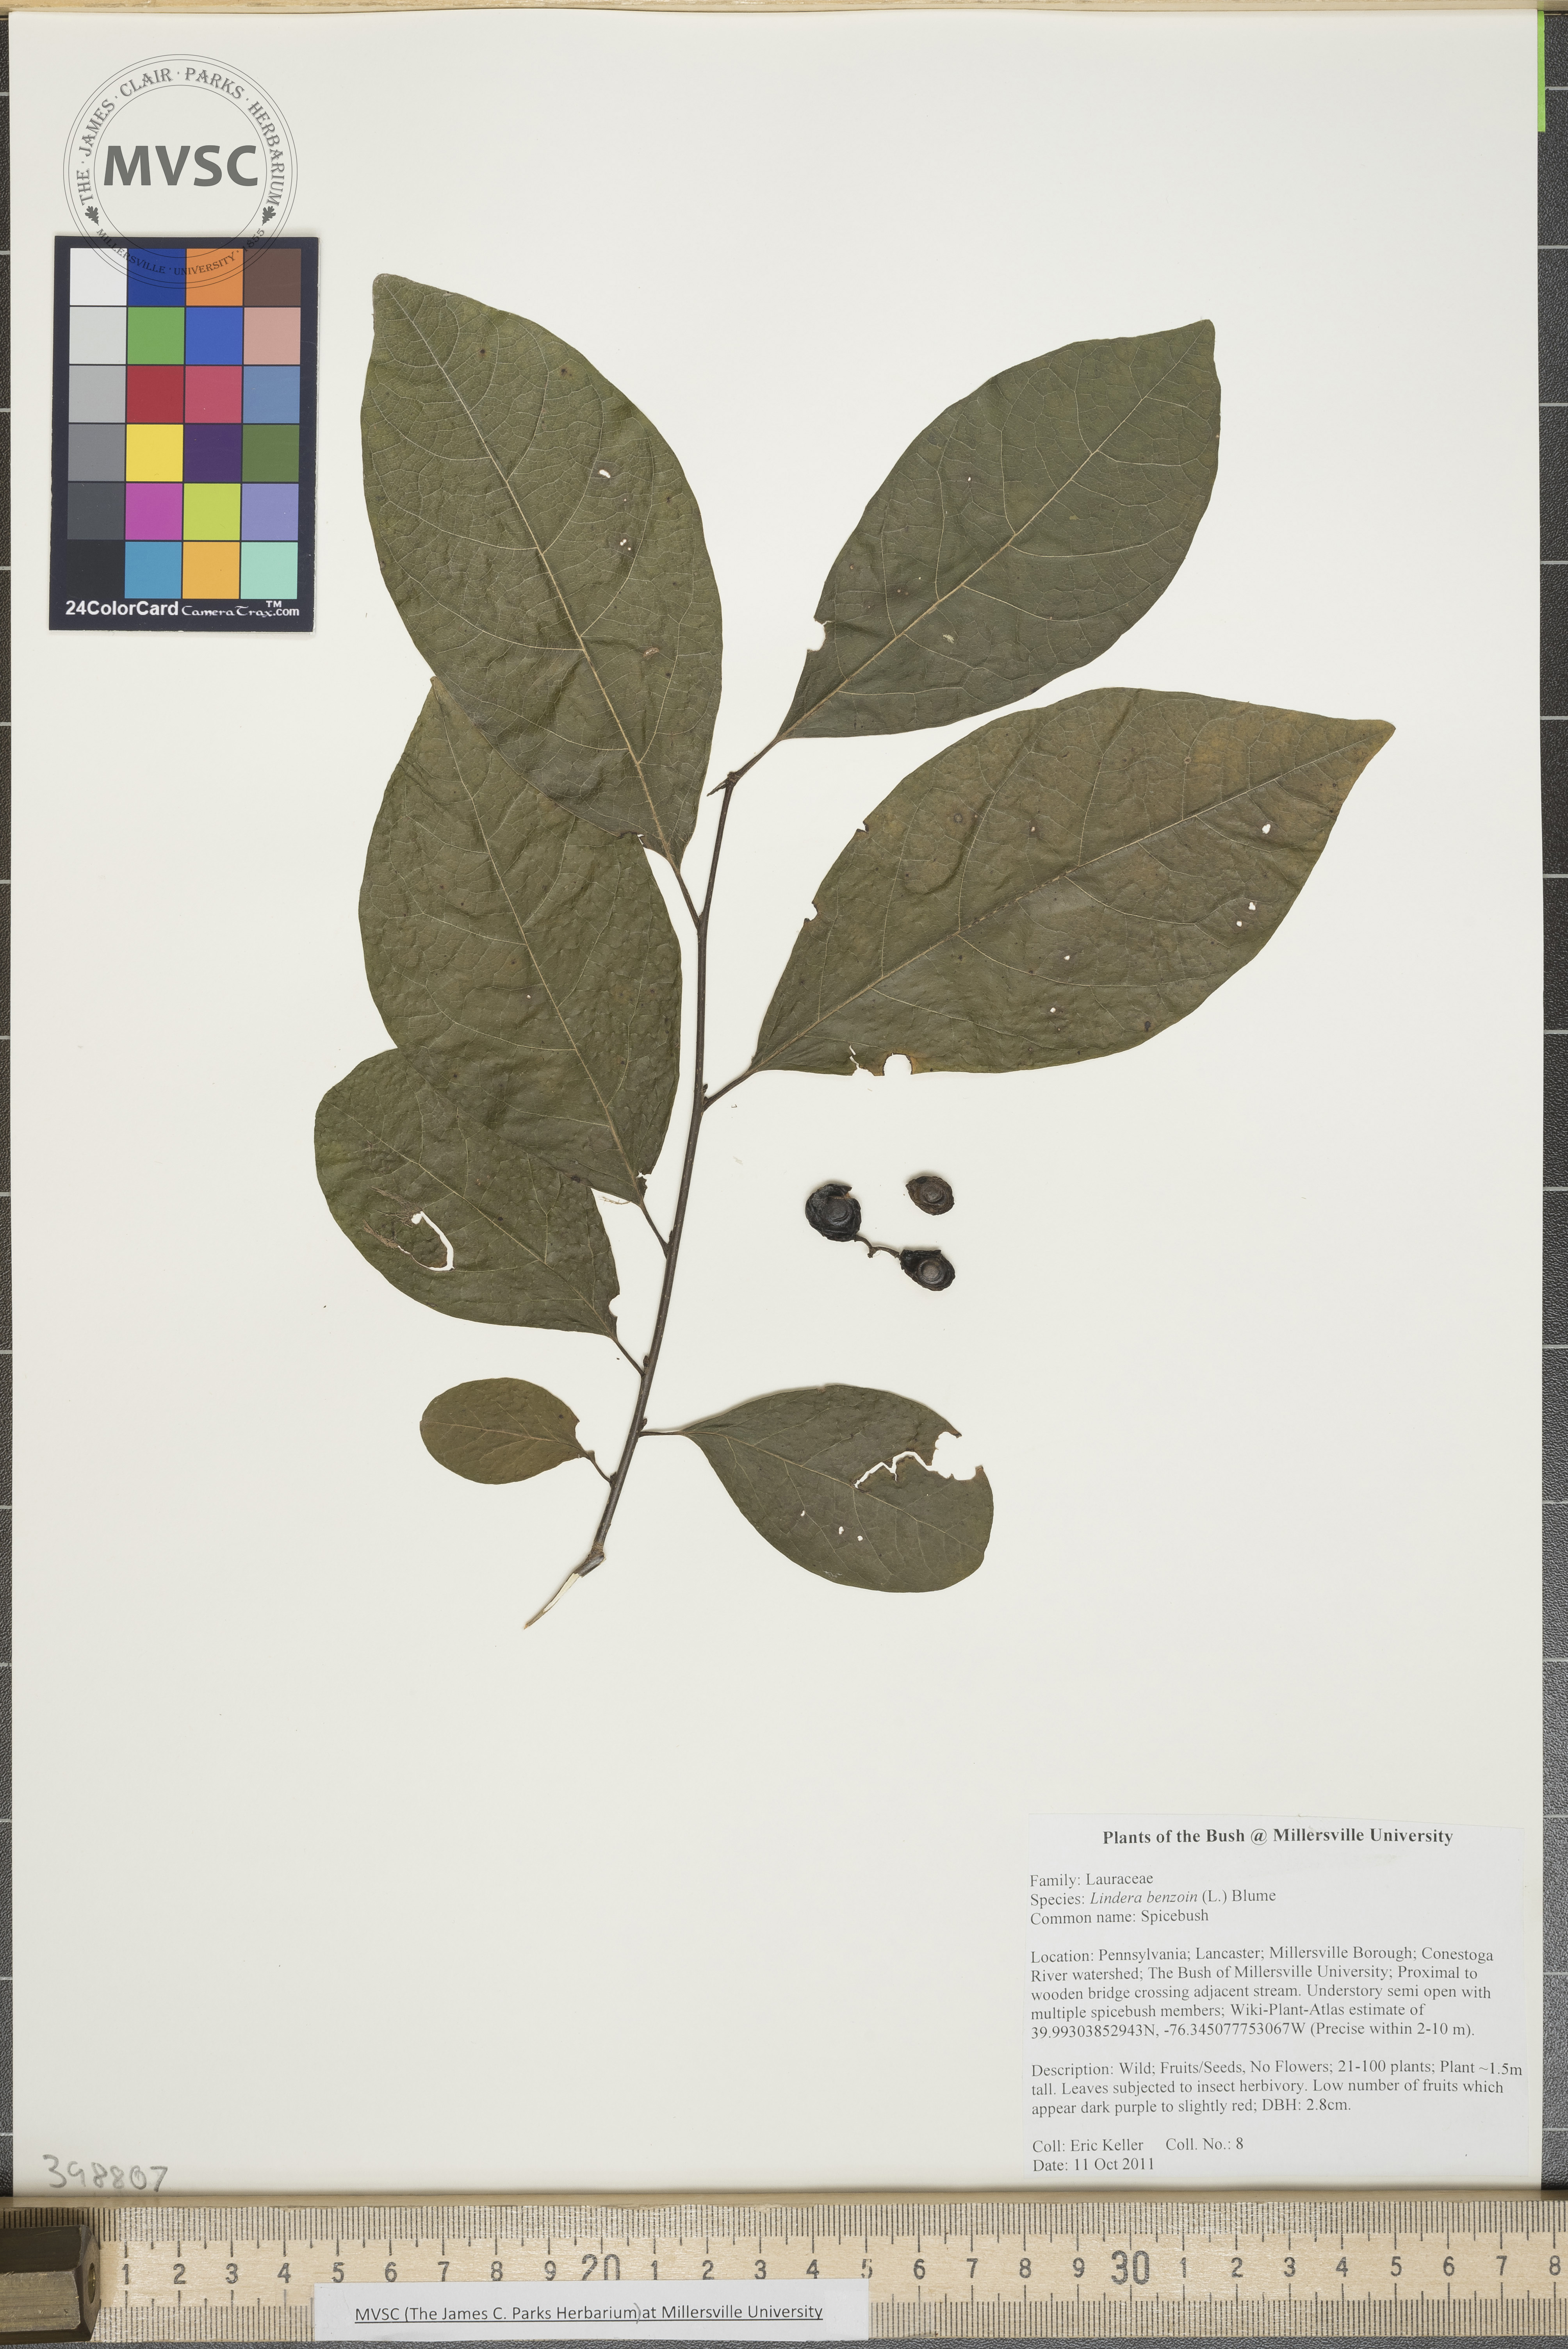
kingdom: Plantae
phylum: Tracheophyta
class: Magnoliopsida
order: Laurales
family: Lauraceae
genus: Lindera
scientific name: Lindera benzoin
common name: Spicebush
